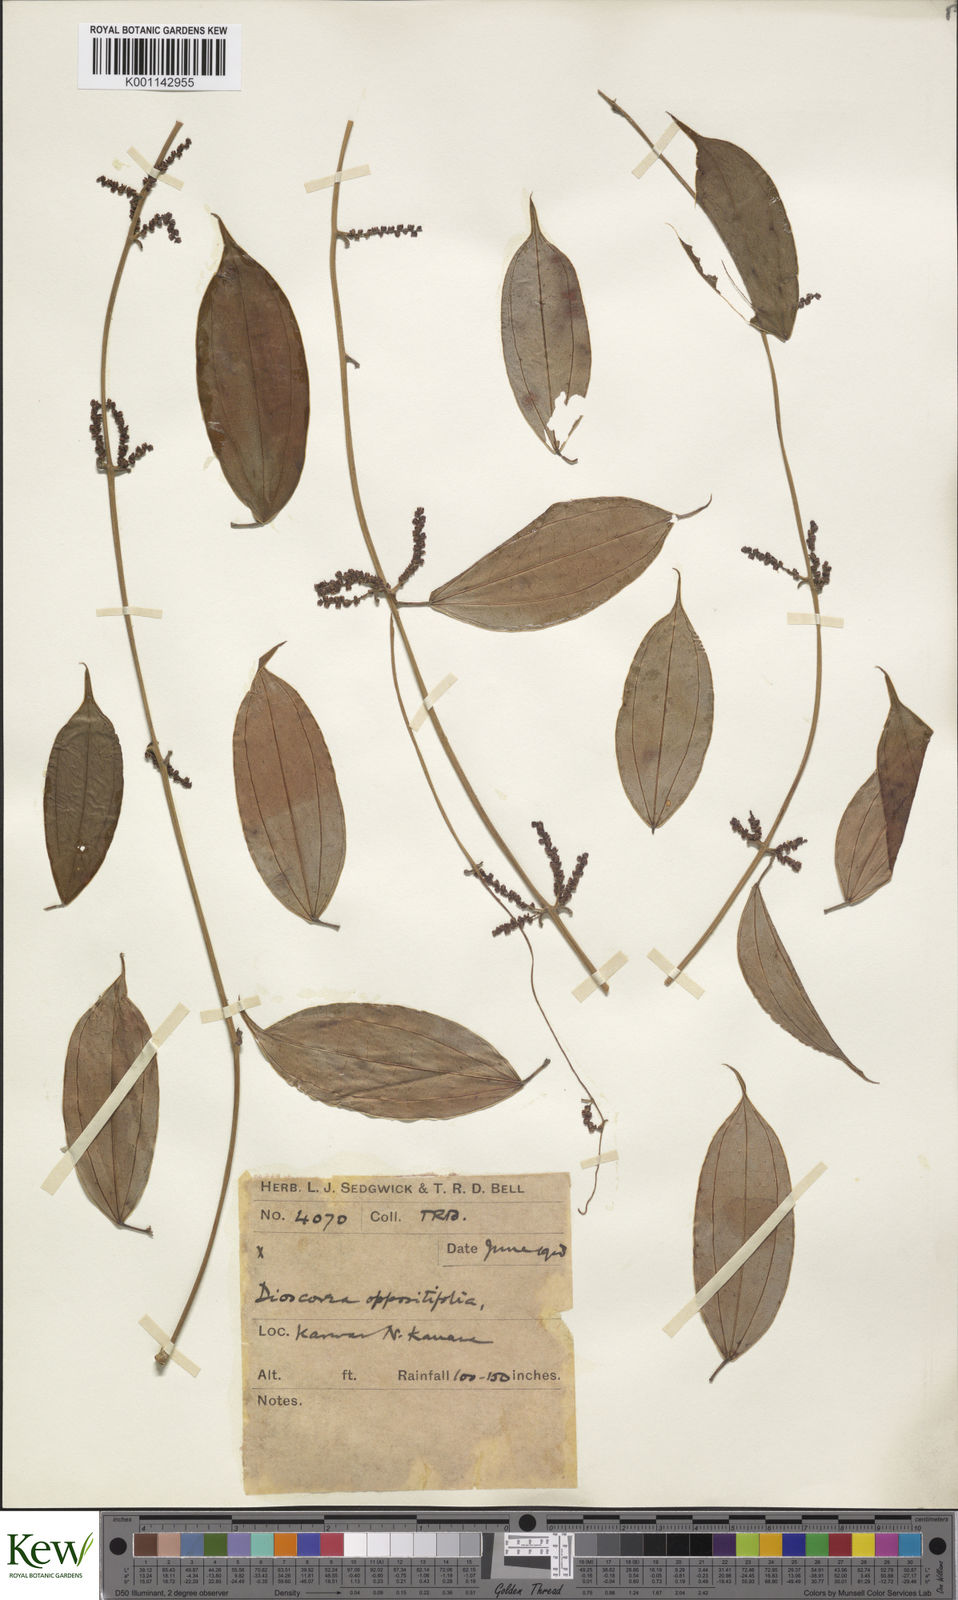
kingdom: Plantae
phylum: Tracheophyta
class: Liliopsida
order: Dioscoreales
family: Dioscoreaceae
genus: Dioscorea
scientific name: Dioscorea oppositifolia
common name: Chinese yam
